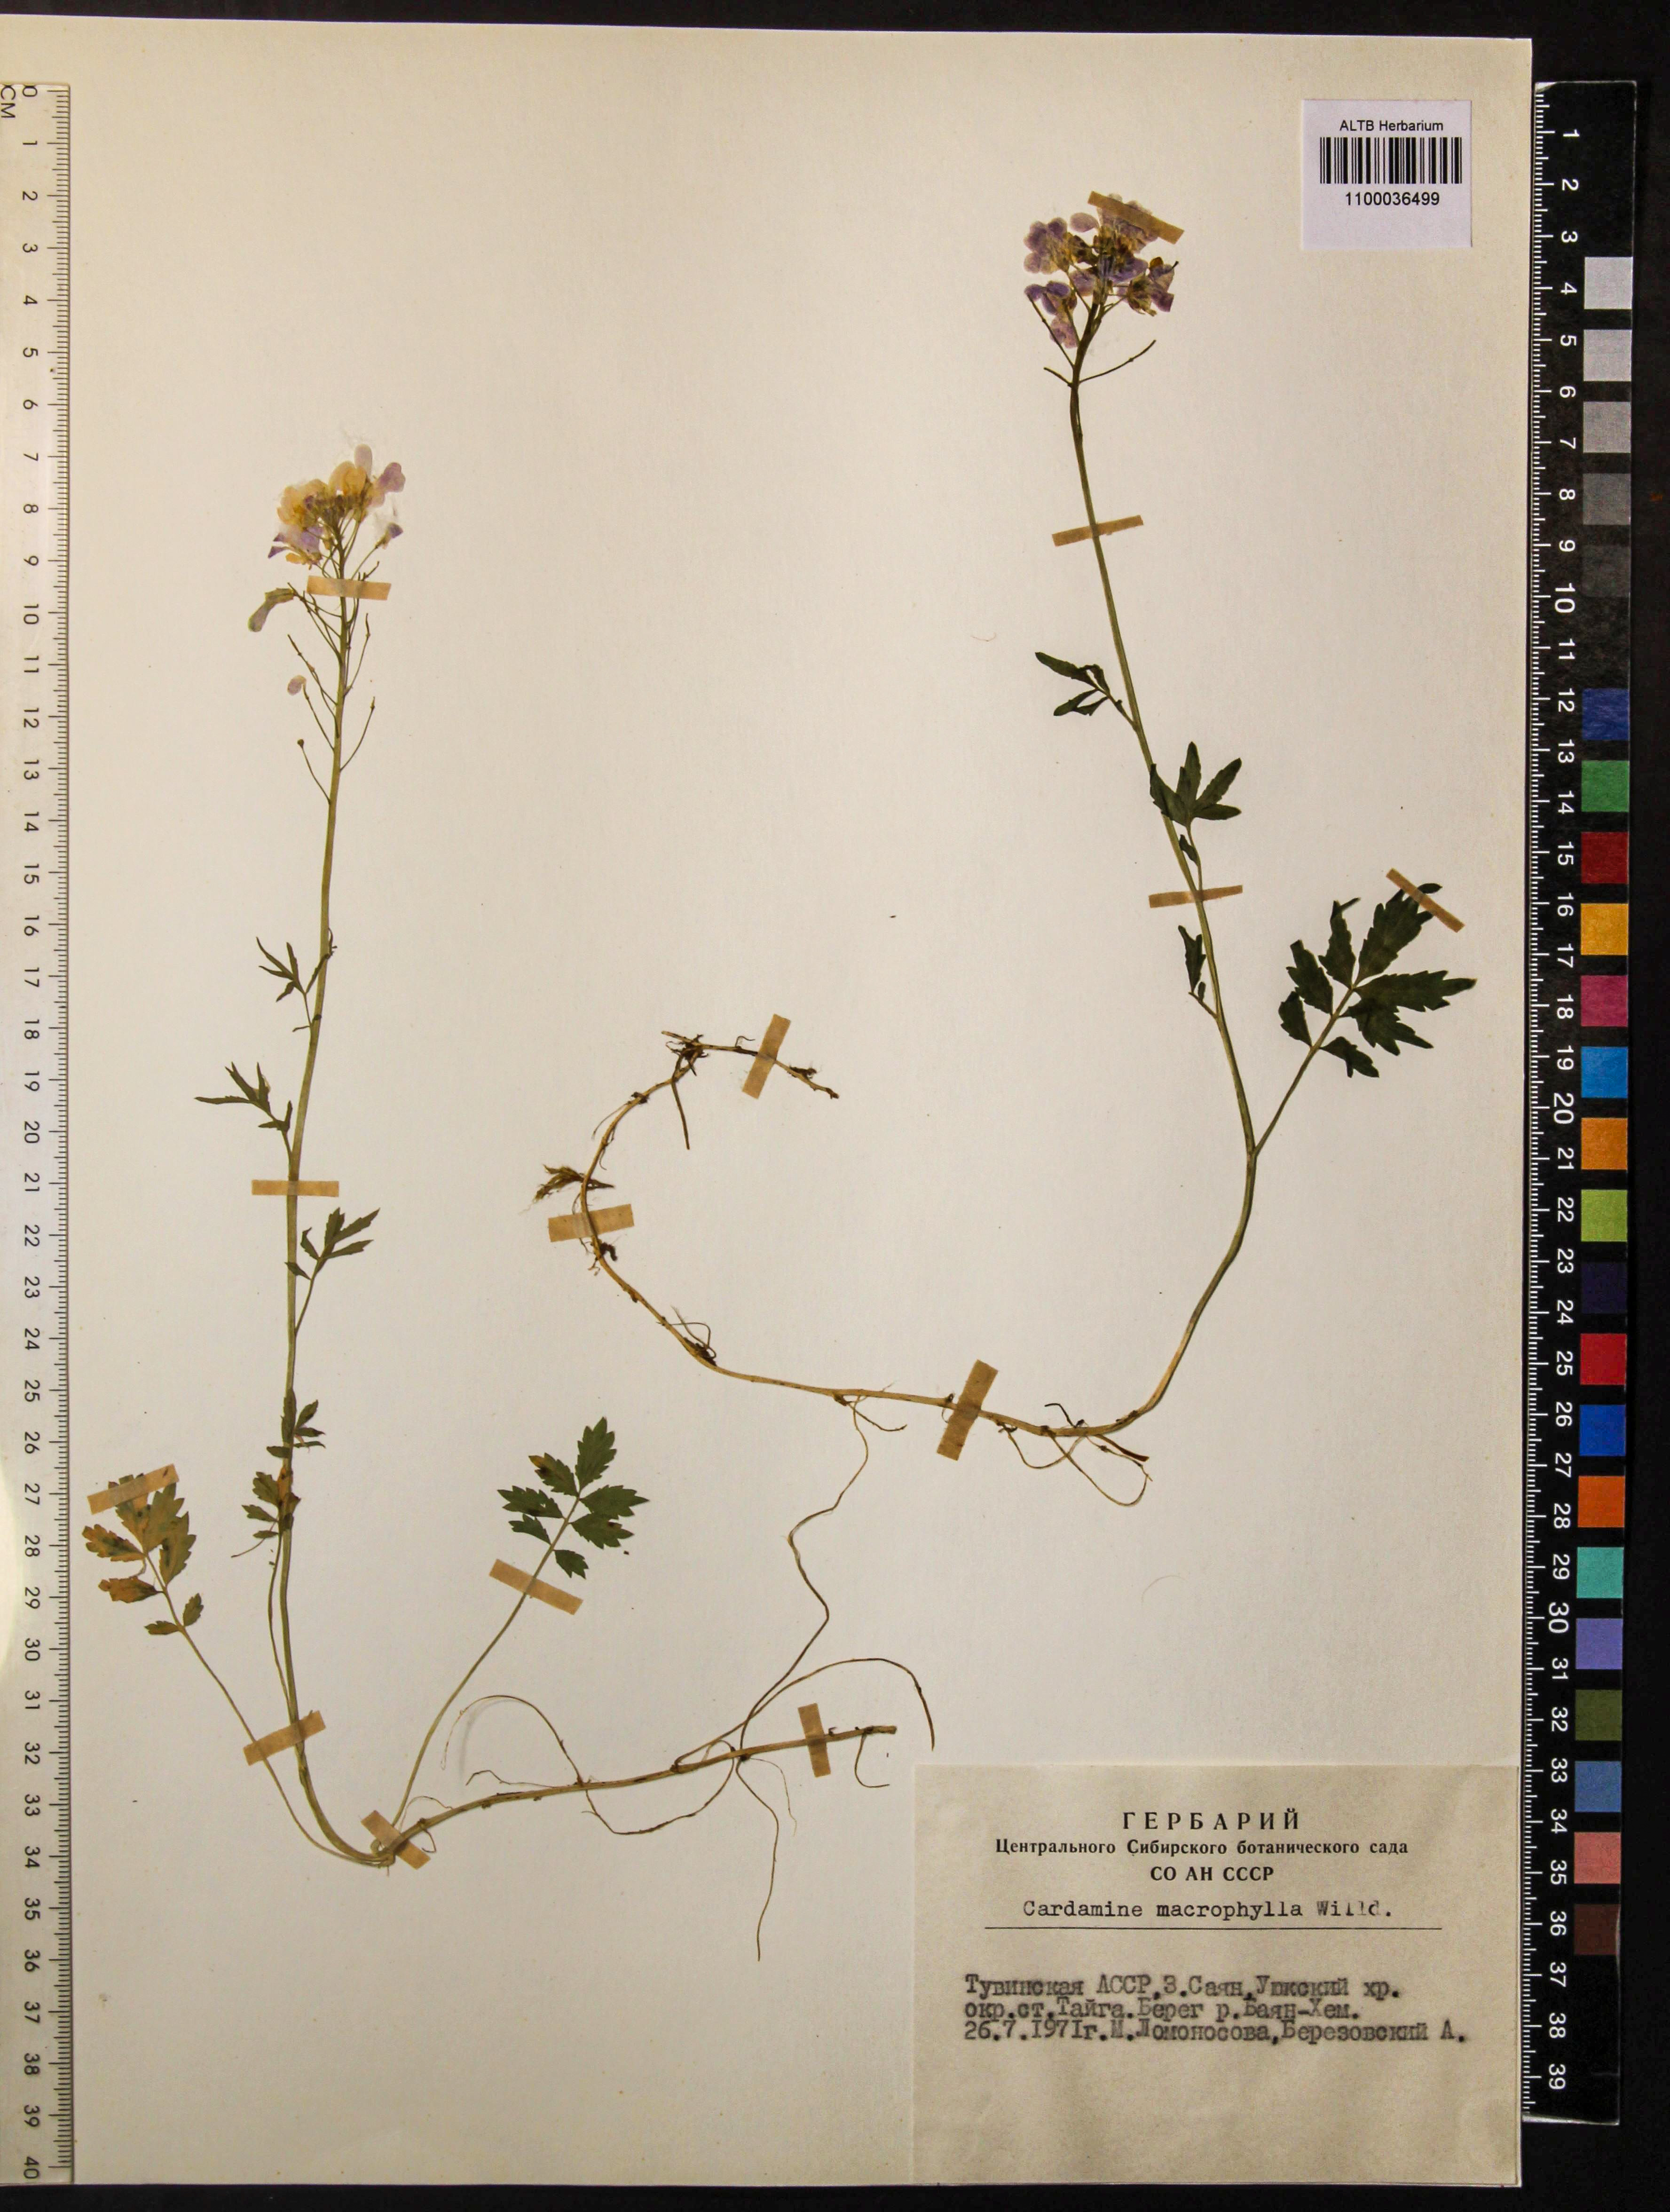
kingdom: Plantae
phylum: Tracheophyta
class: Magnoliopsida
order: Brassicales
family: Brassicaceae
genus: Cardamine
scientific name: Cardamine macrophylla
